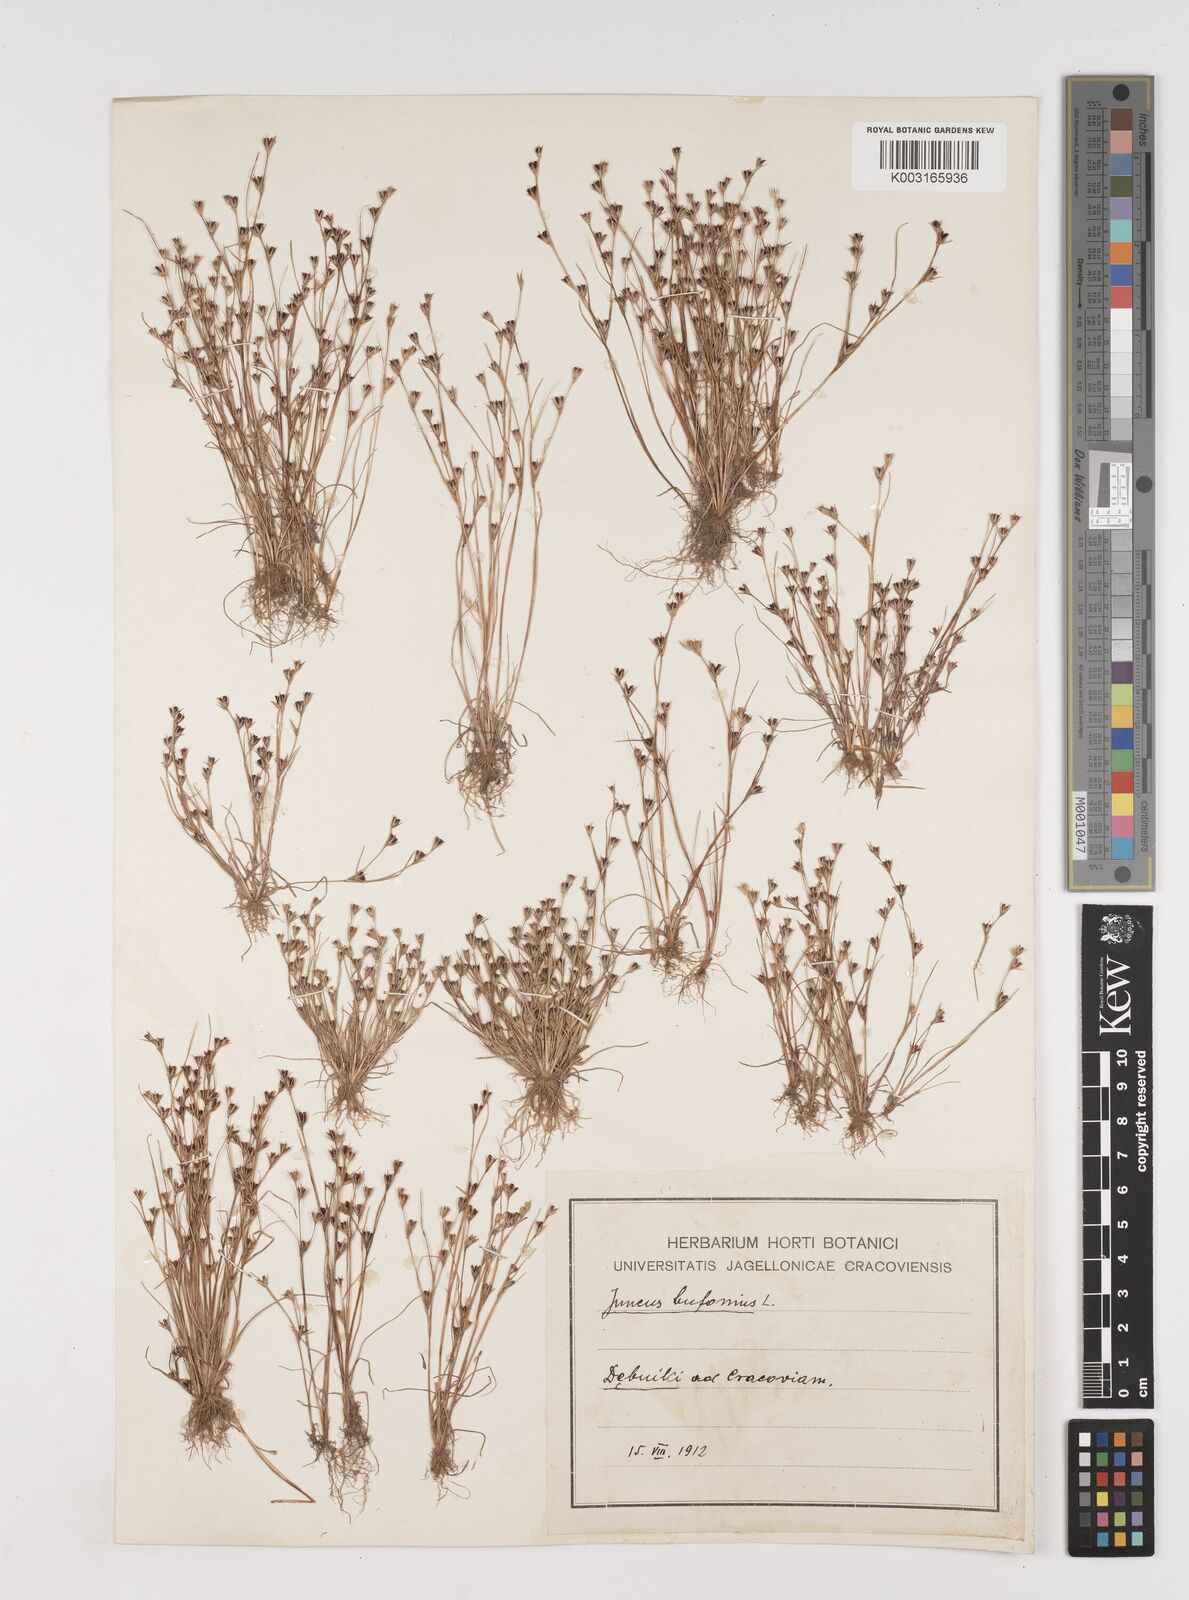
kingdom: Plantae
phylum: Tracheophyta
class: Liliopsida
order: Poales
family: Juncaceae
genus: Juncus
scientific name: Juncus bufonius
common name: Toad rush
